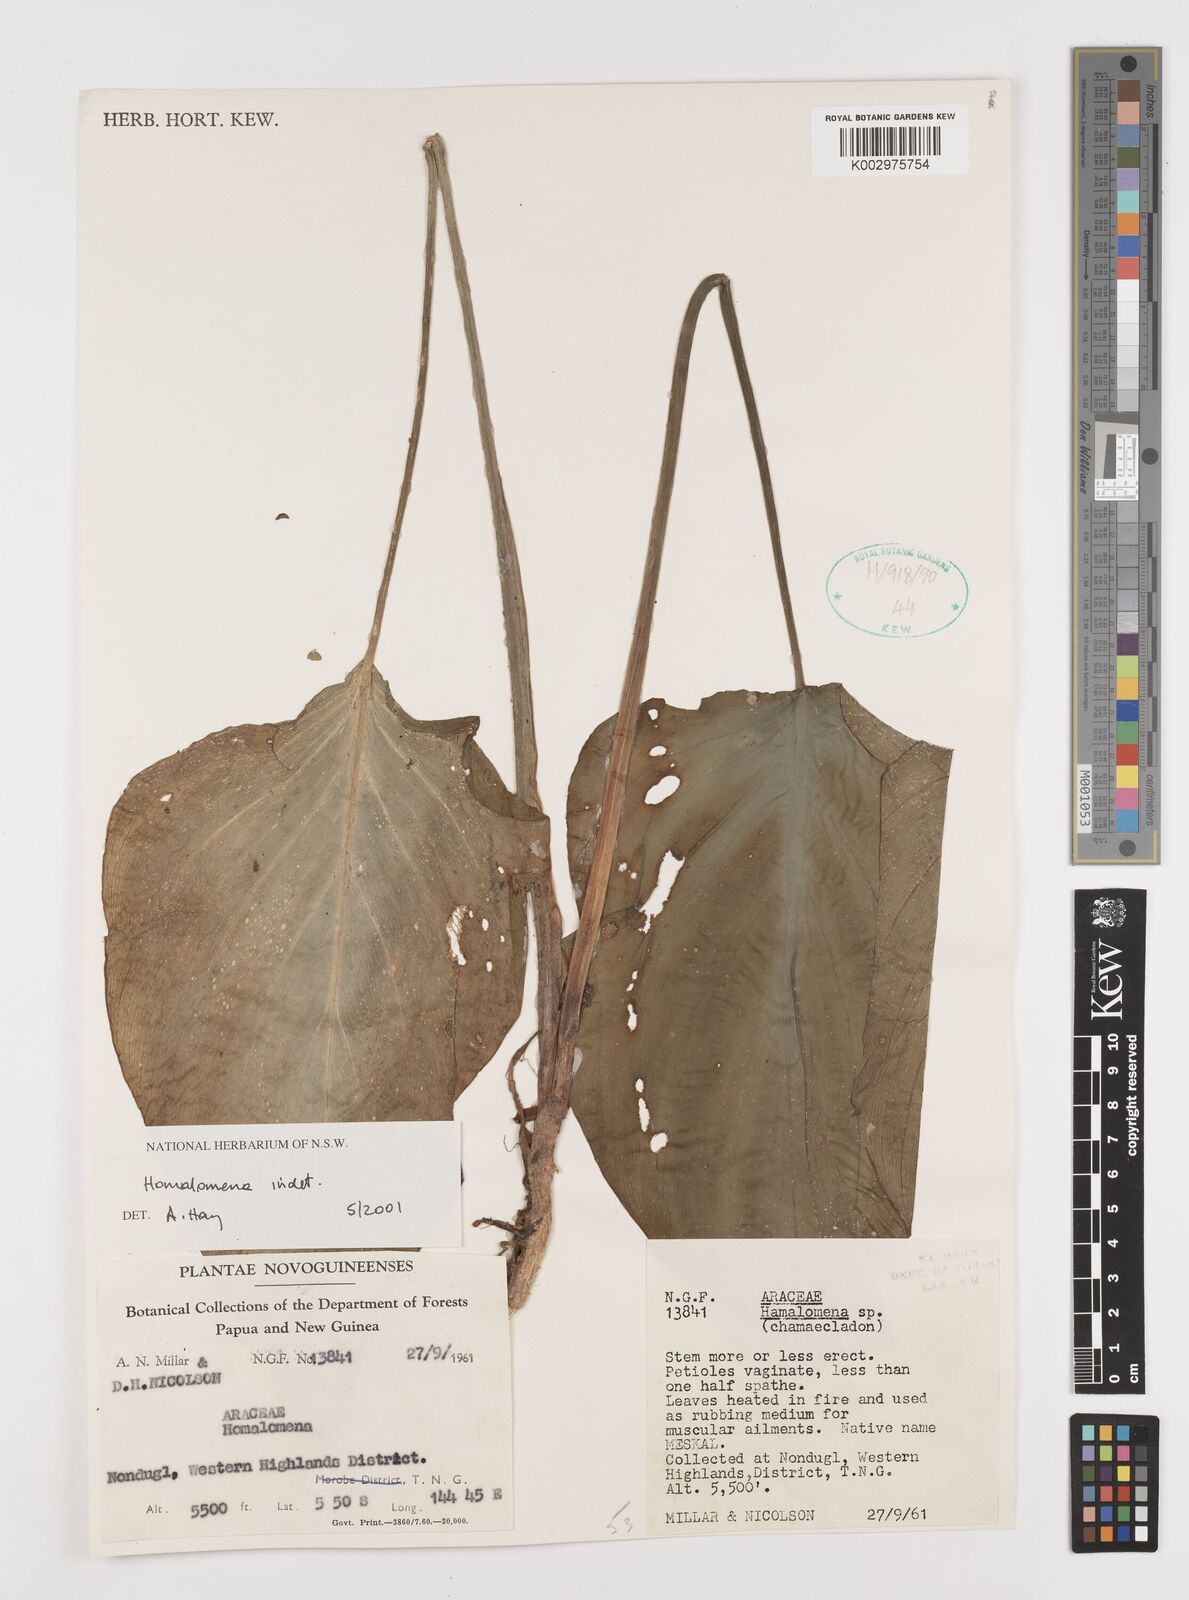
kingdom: Plantae
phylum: Tracheophyta
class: Liliopsida
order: Alismatales
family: Araceae
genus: Homalomena
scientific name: Homalomena
